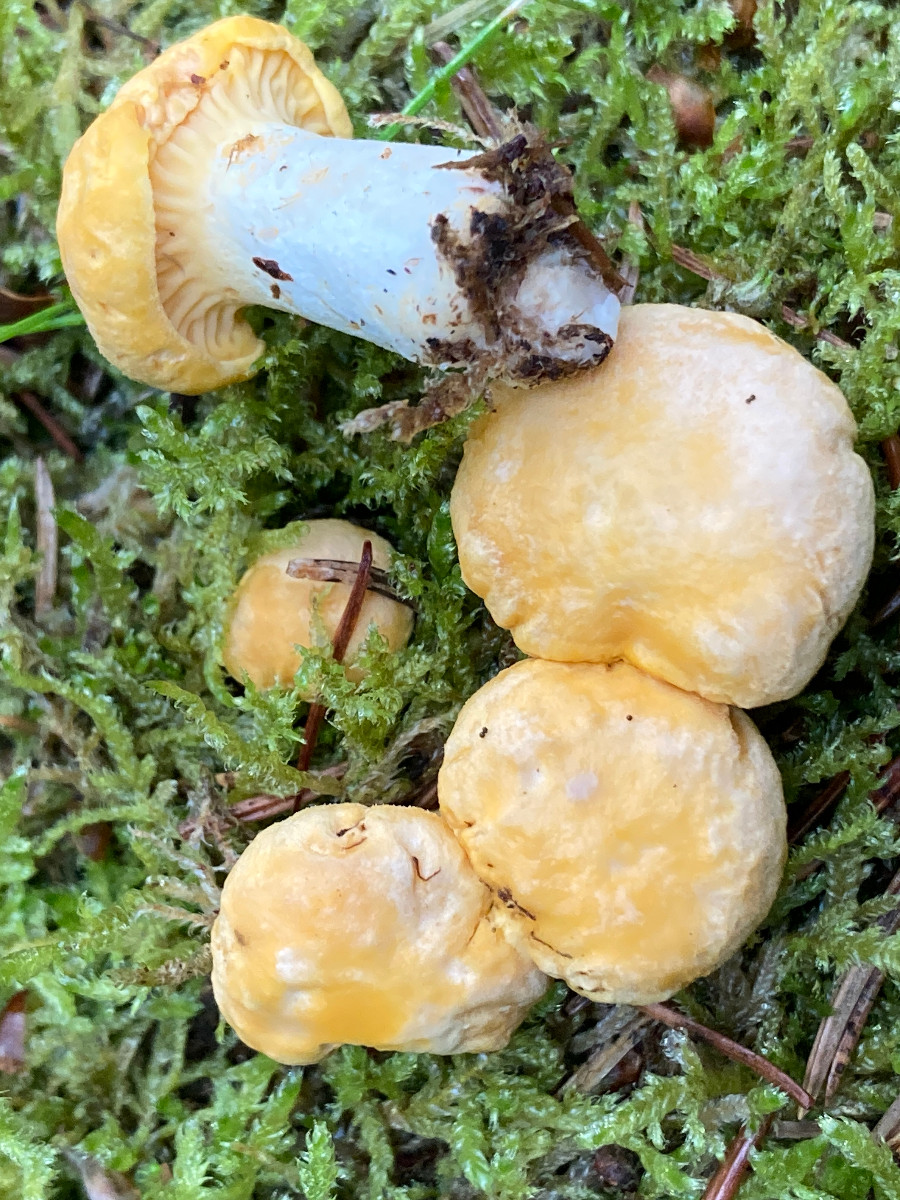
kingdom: Fungi
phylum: Basidiomycota
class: Agaricomycetes
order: Cantharellales
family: Hydnaceae
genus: Cantharellus
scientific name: Cantharellus cibarius
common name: almindelig kantarel
